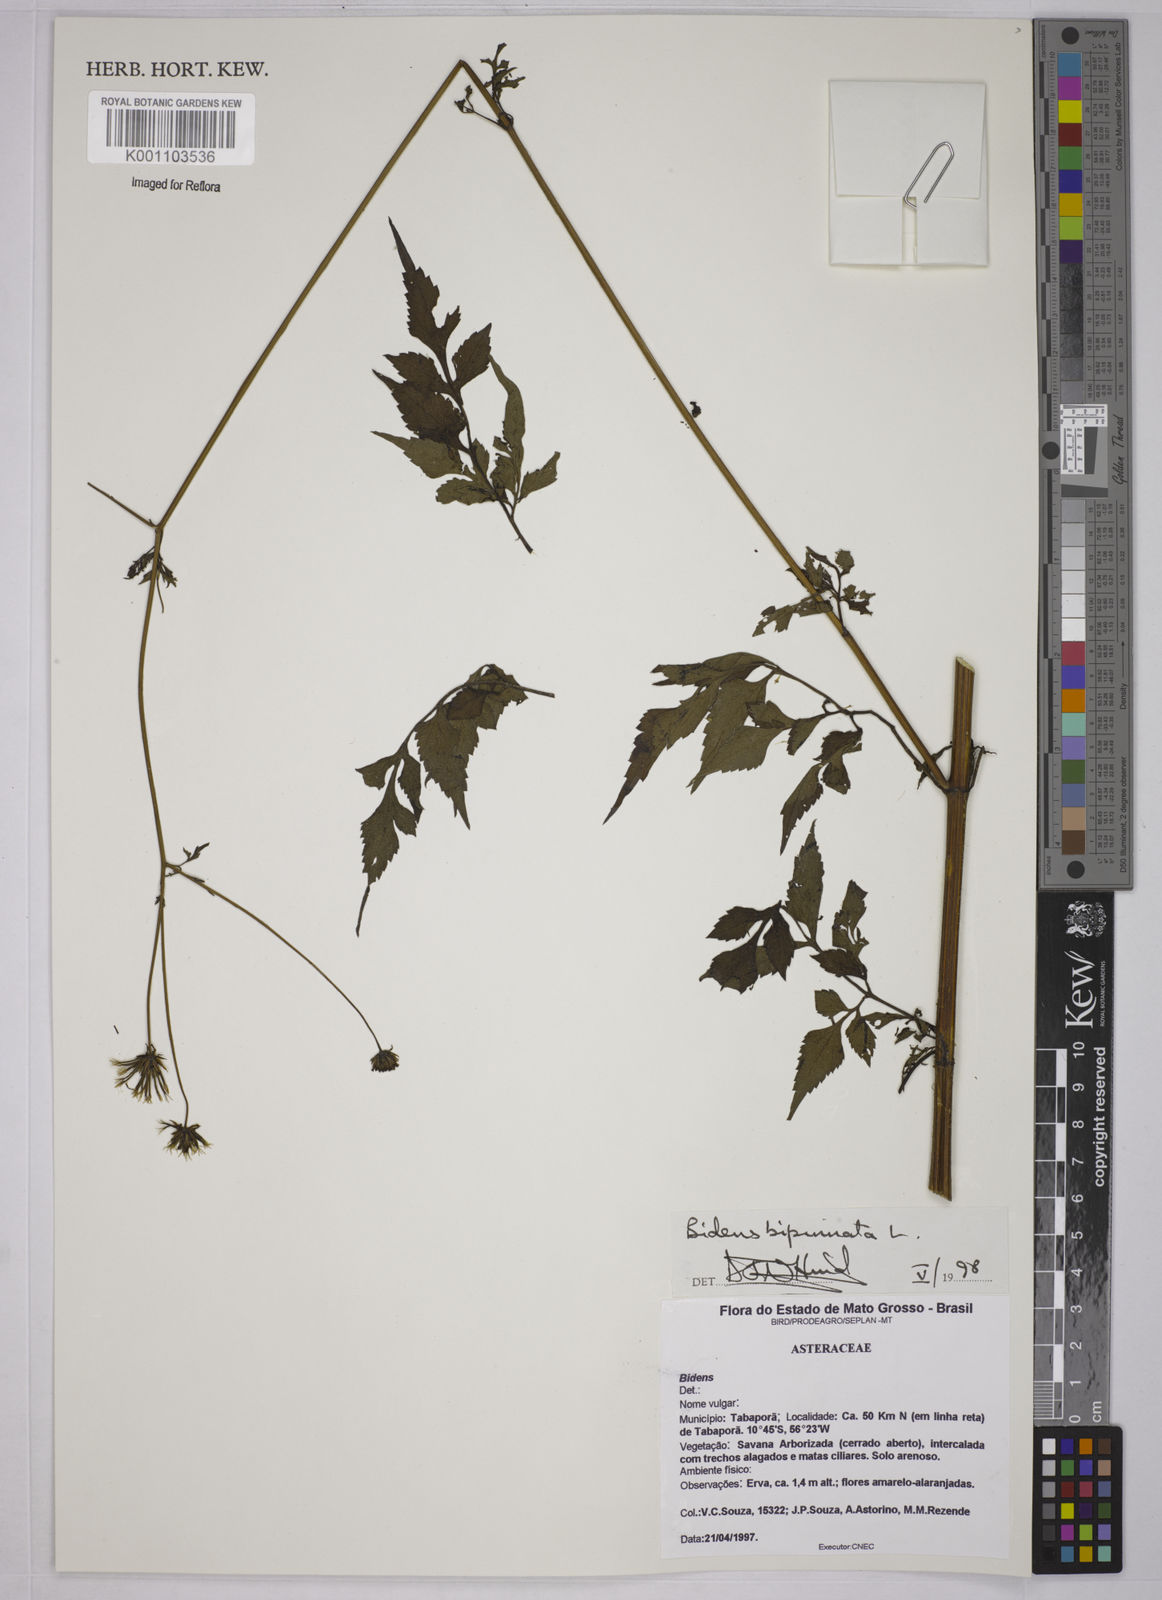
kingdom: Plantae
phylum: Tracheophyta
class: Magnoliopsida
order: Asterales
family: Asteraceae
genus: Bidens
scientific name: Bidens bipinnata
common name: Spanish-needles
